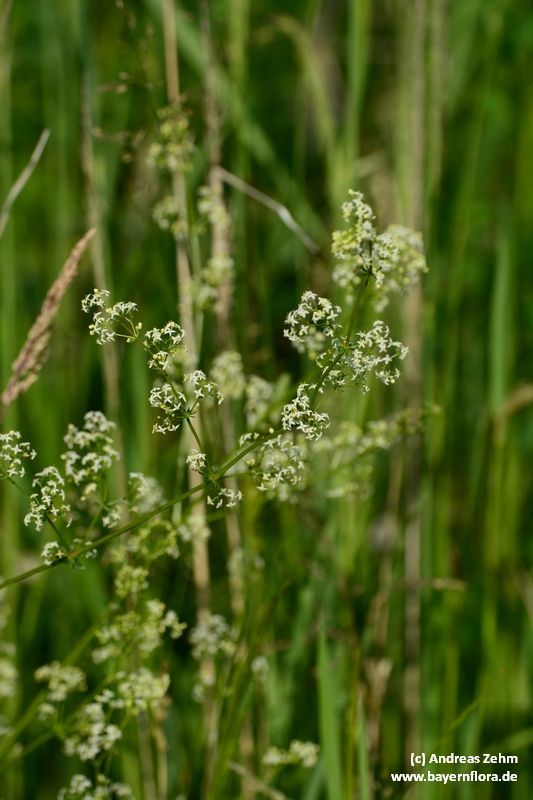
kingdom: Plantae
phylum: Tracheophyta
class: Magnoliopsida
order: Gentianales
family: Rubiaceae
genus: Galium
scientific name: Galium
